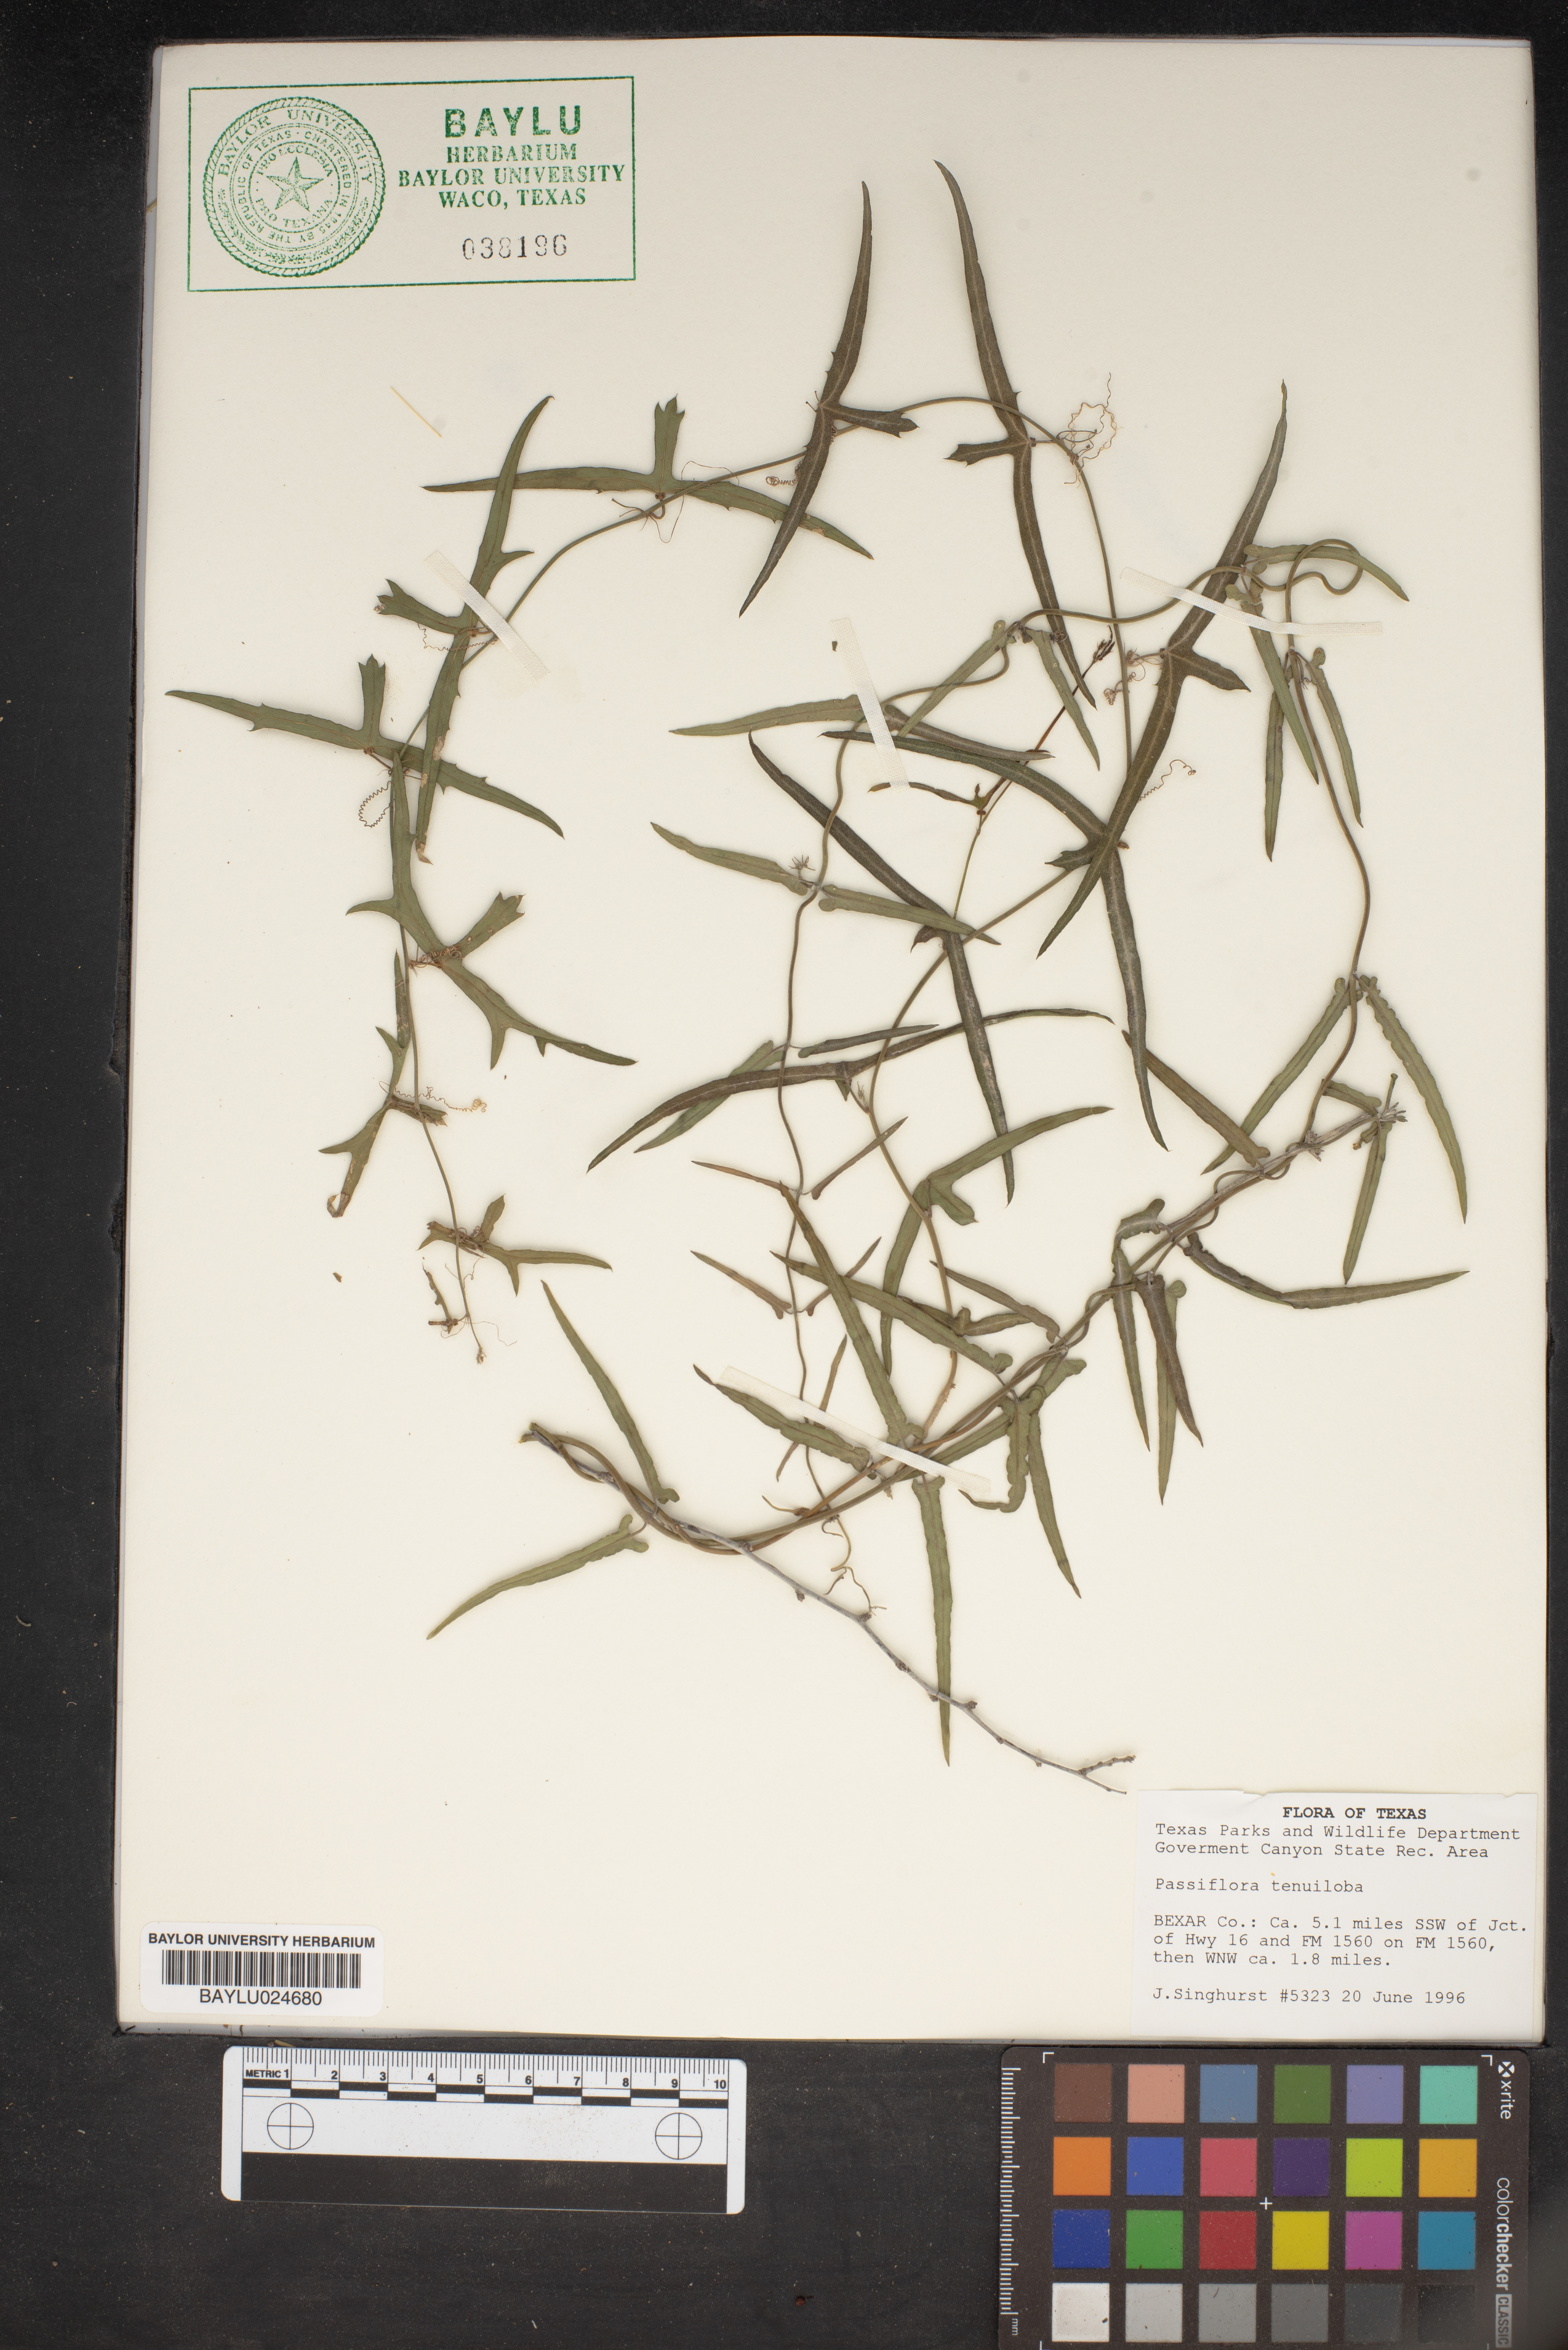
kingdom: Plantae
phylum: Tracheophyta
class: Magnoliopsida
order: Malpighiales
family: Passifloraceae
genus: Passiflora
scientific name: Passiflora tenuiloba
